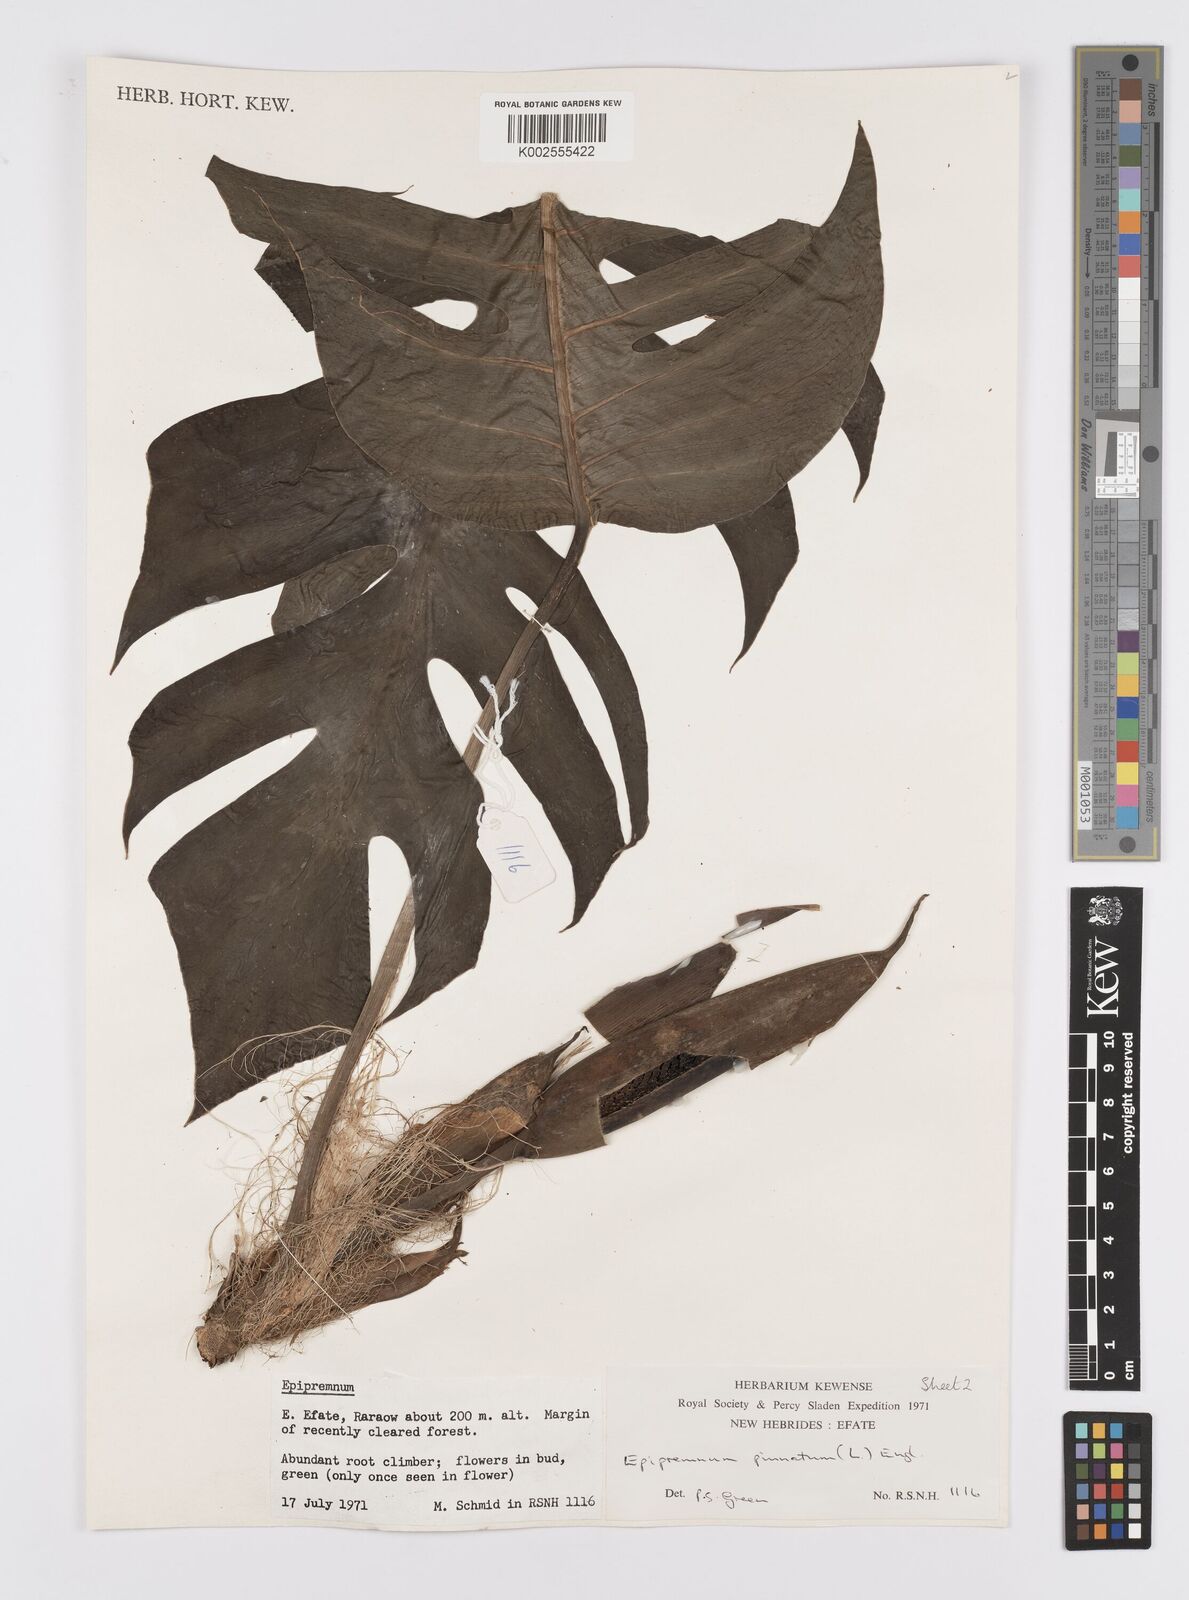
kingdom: Plantae
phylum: Tracheophyta
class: Liliopsida
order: Alismatales
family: Araceae
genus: Epipremnum
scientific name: Epipremnum pinnatum
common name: Centipede tongavine
